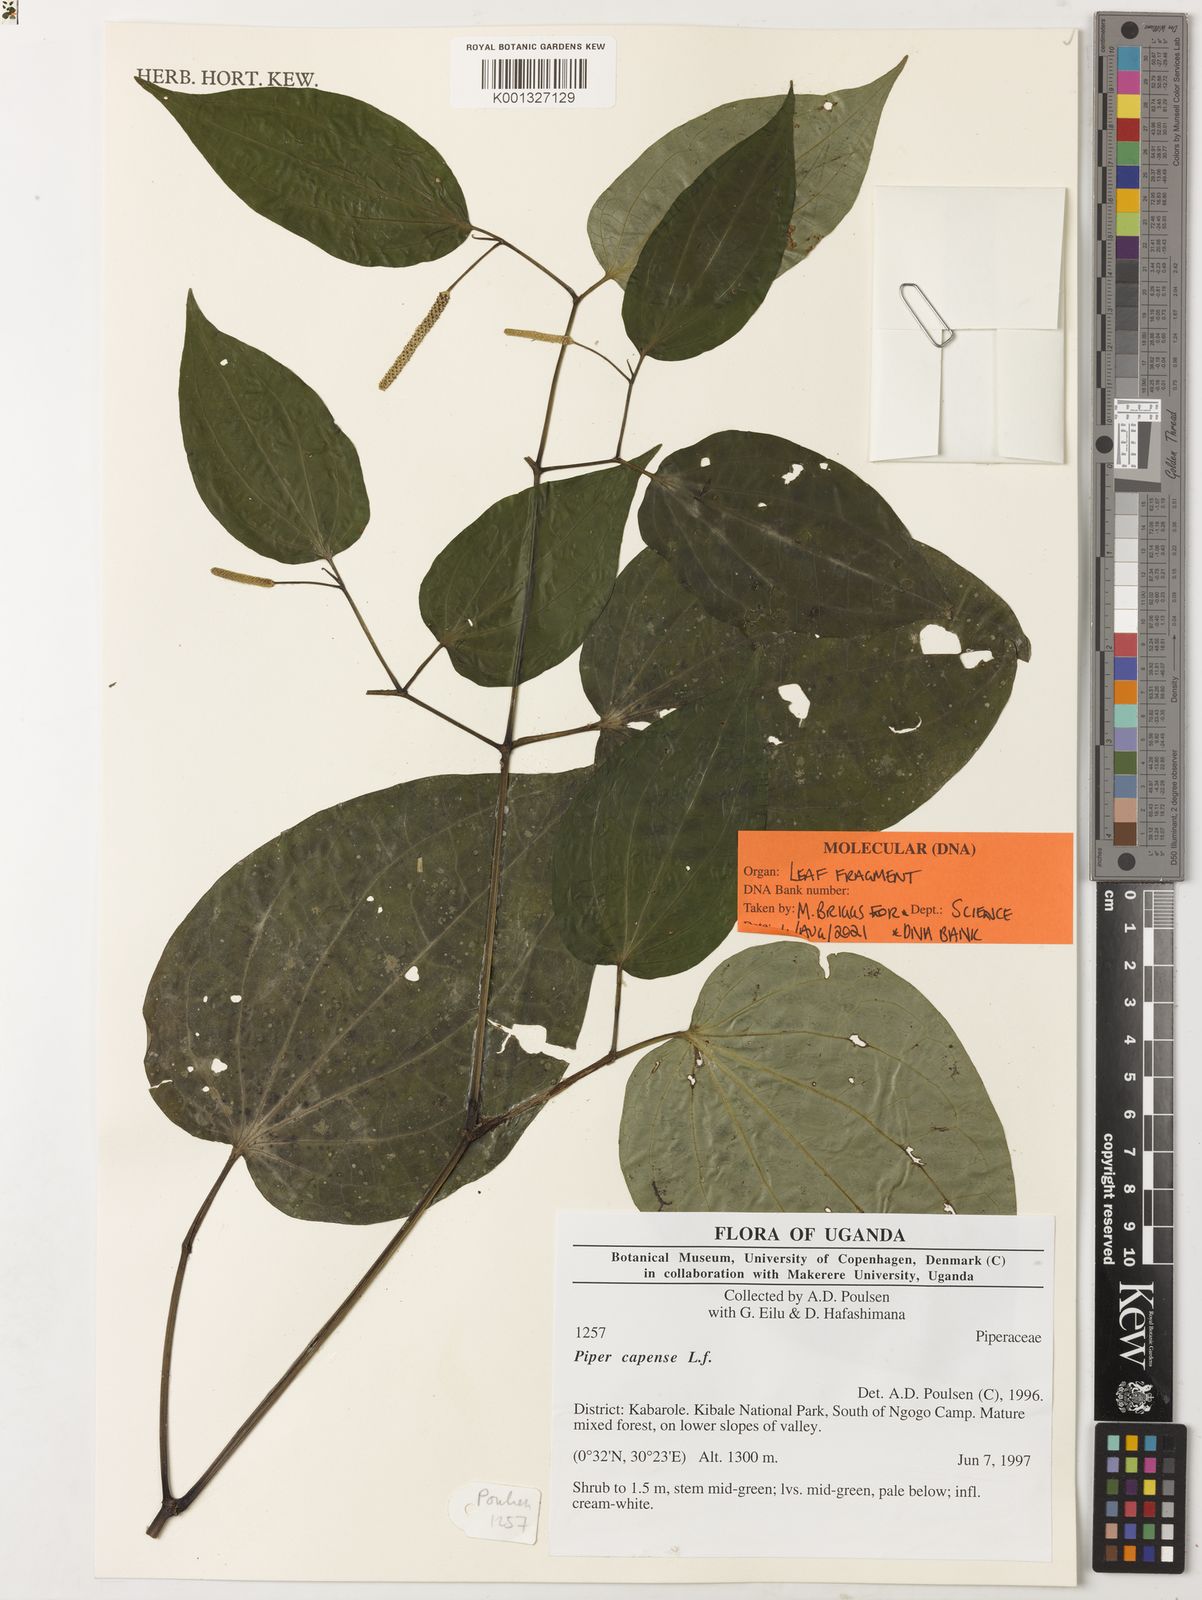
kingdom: Plantae
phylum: Tracheophyta
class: Magnoliopsida
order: Piperales
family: Piperaceae
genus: Piper
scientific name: Piper capense
